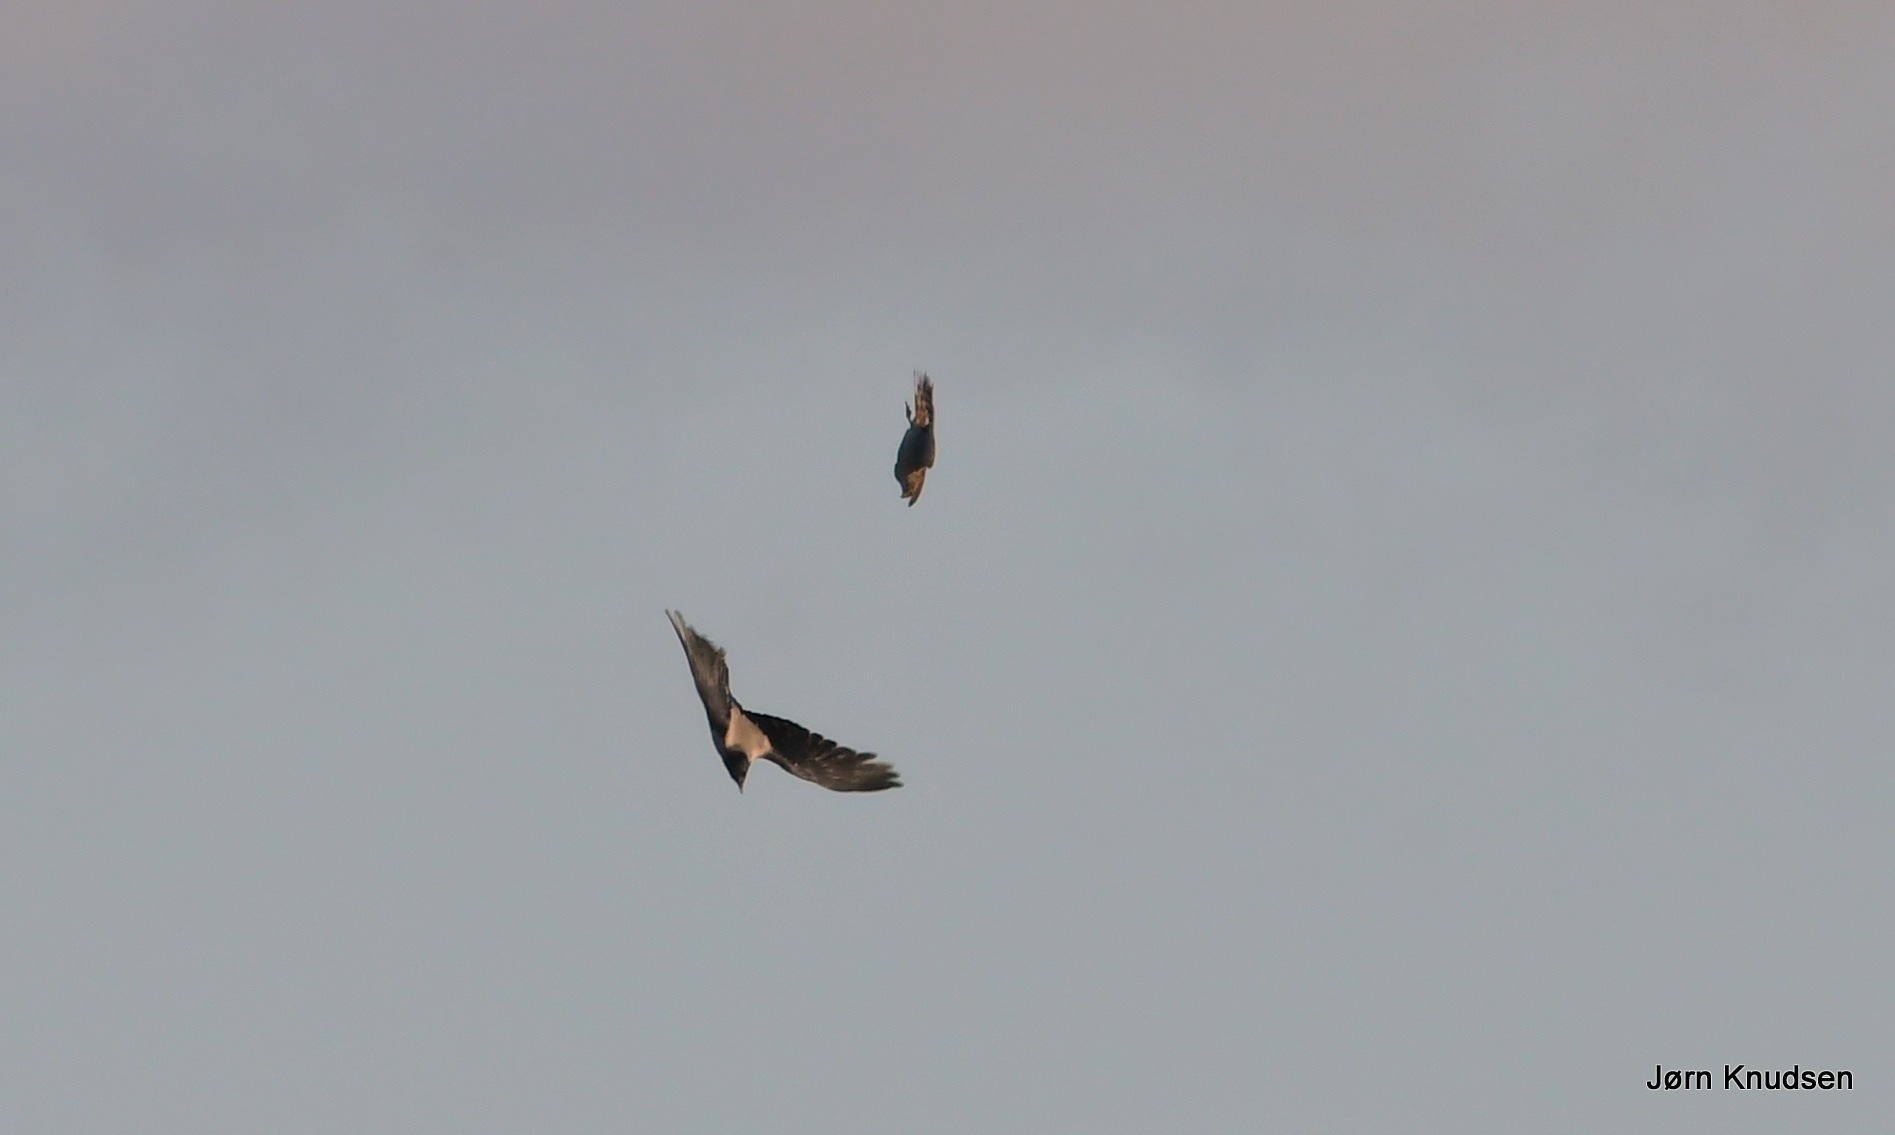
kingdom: Animalia
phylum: Chordata
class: Aves
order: Accipitriformes
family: Accipitridae
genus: Accipiter
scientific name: Accipiter nisus
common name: Spurvehøg
